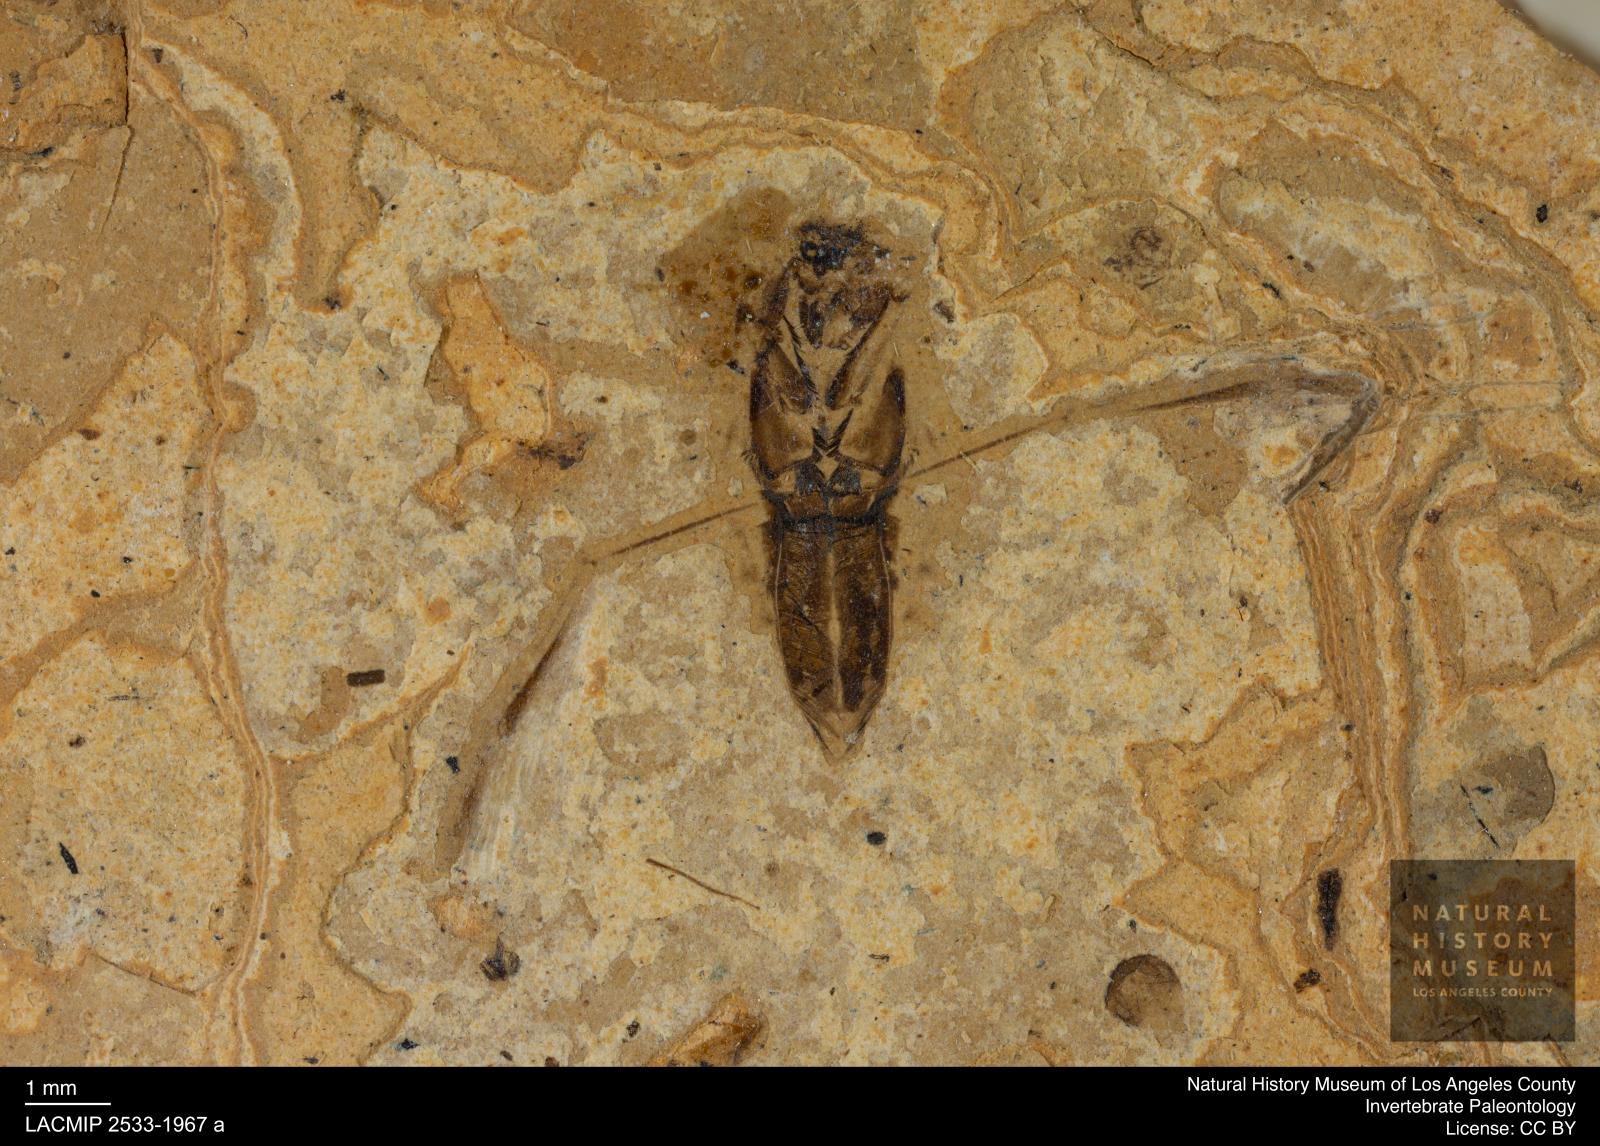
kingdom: Animalia
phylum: Arthropoda
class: Insecta
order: Hemiptera
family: Notonectidae
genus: Anisops
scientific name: Anisops Notonecta deichmuelleri
